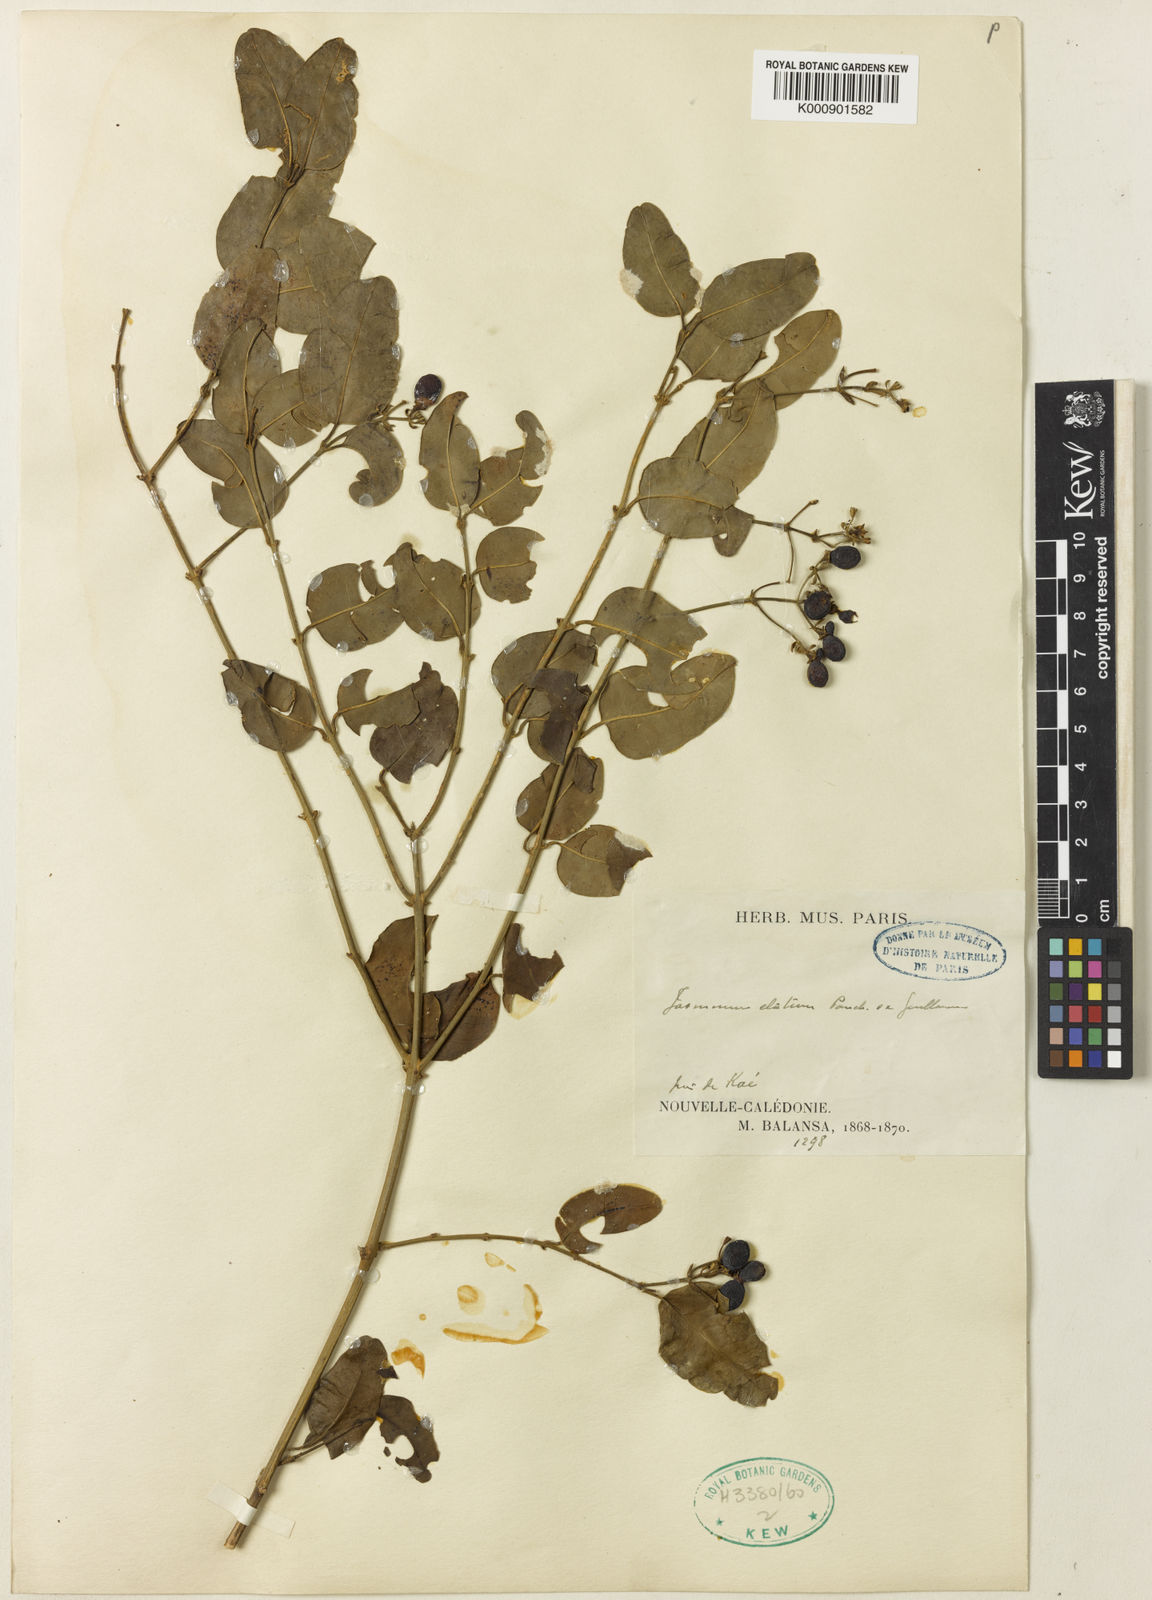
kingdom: Plantae
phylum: Tracheophyta
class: Magnoliopsida
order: Lamiales
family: Oleaceae
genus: Jasminum
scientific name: Jasminum elatum
